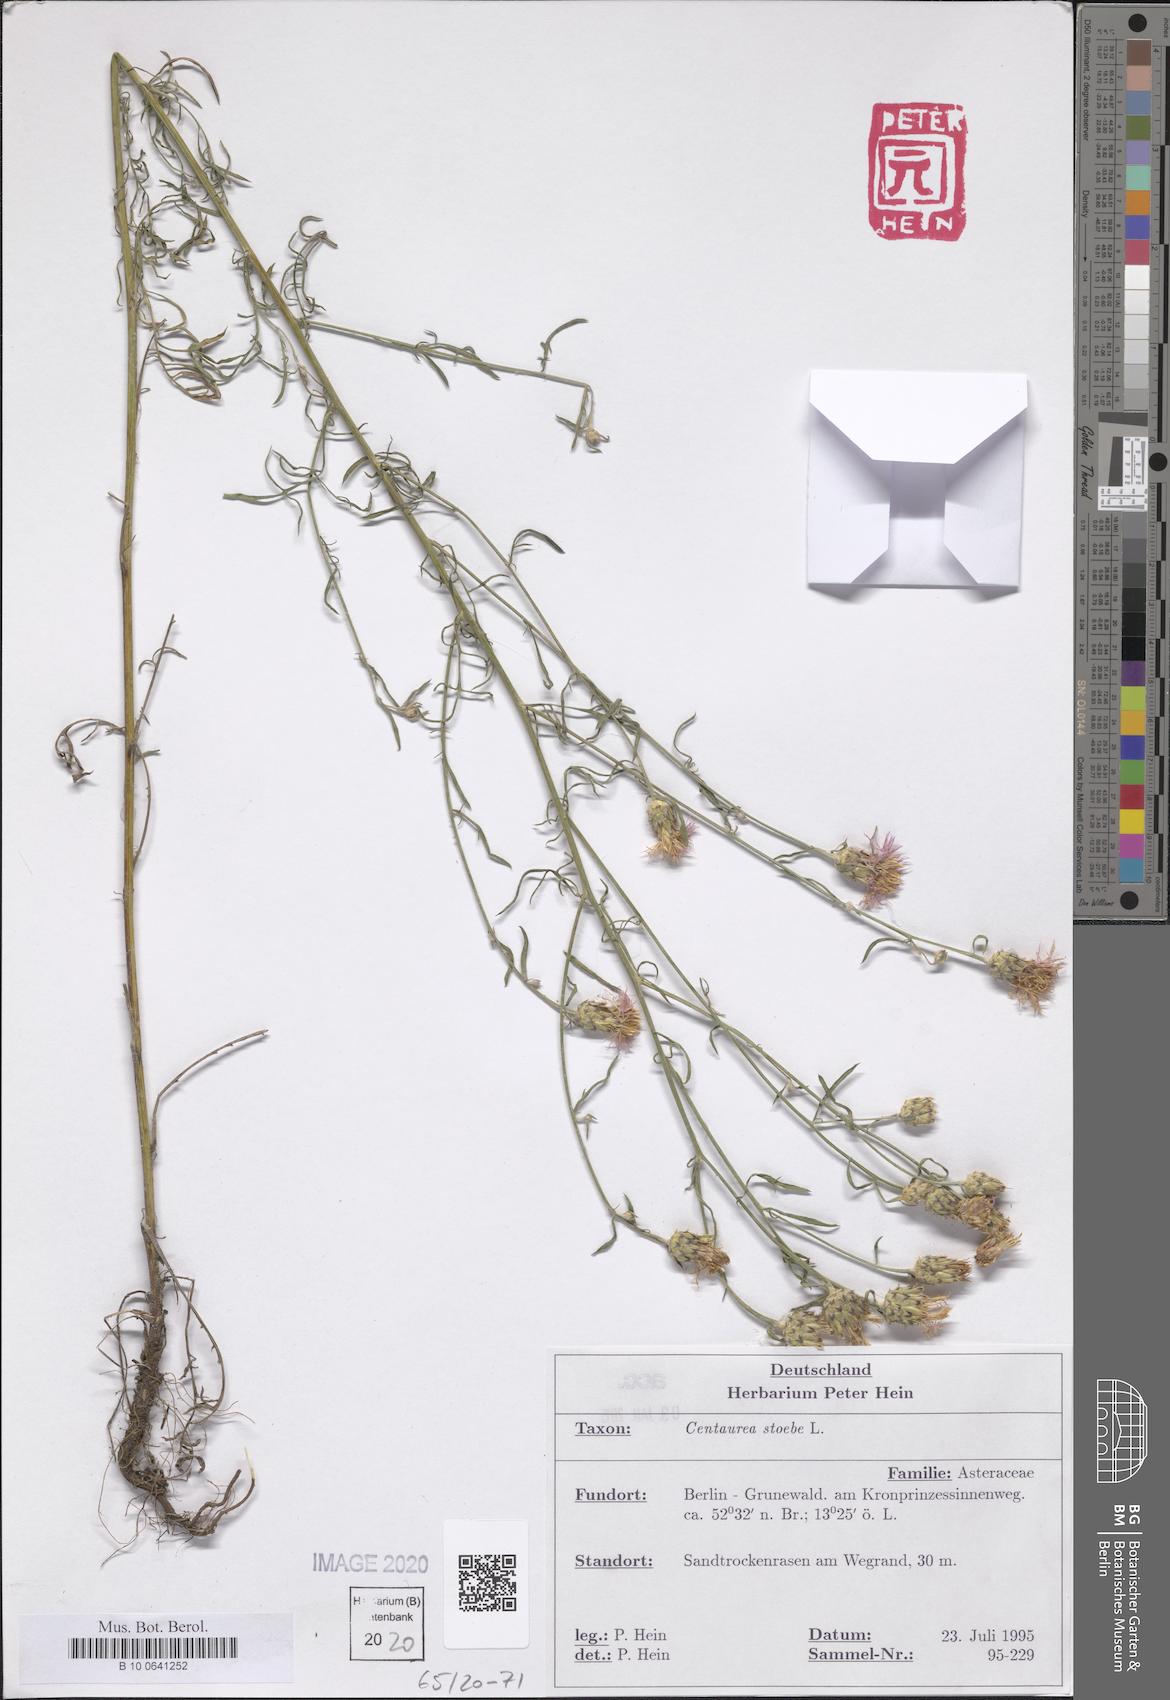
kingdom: Plantae
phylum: Tracheophyta
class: Magnoliopsida
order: Asterales
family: Asteraceae
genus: Centaurea
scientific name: Centaurea stoebe
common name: Spotted knapweed
